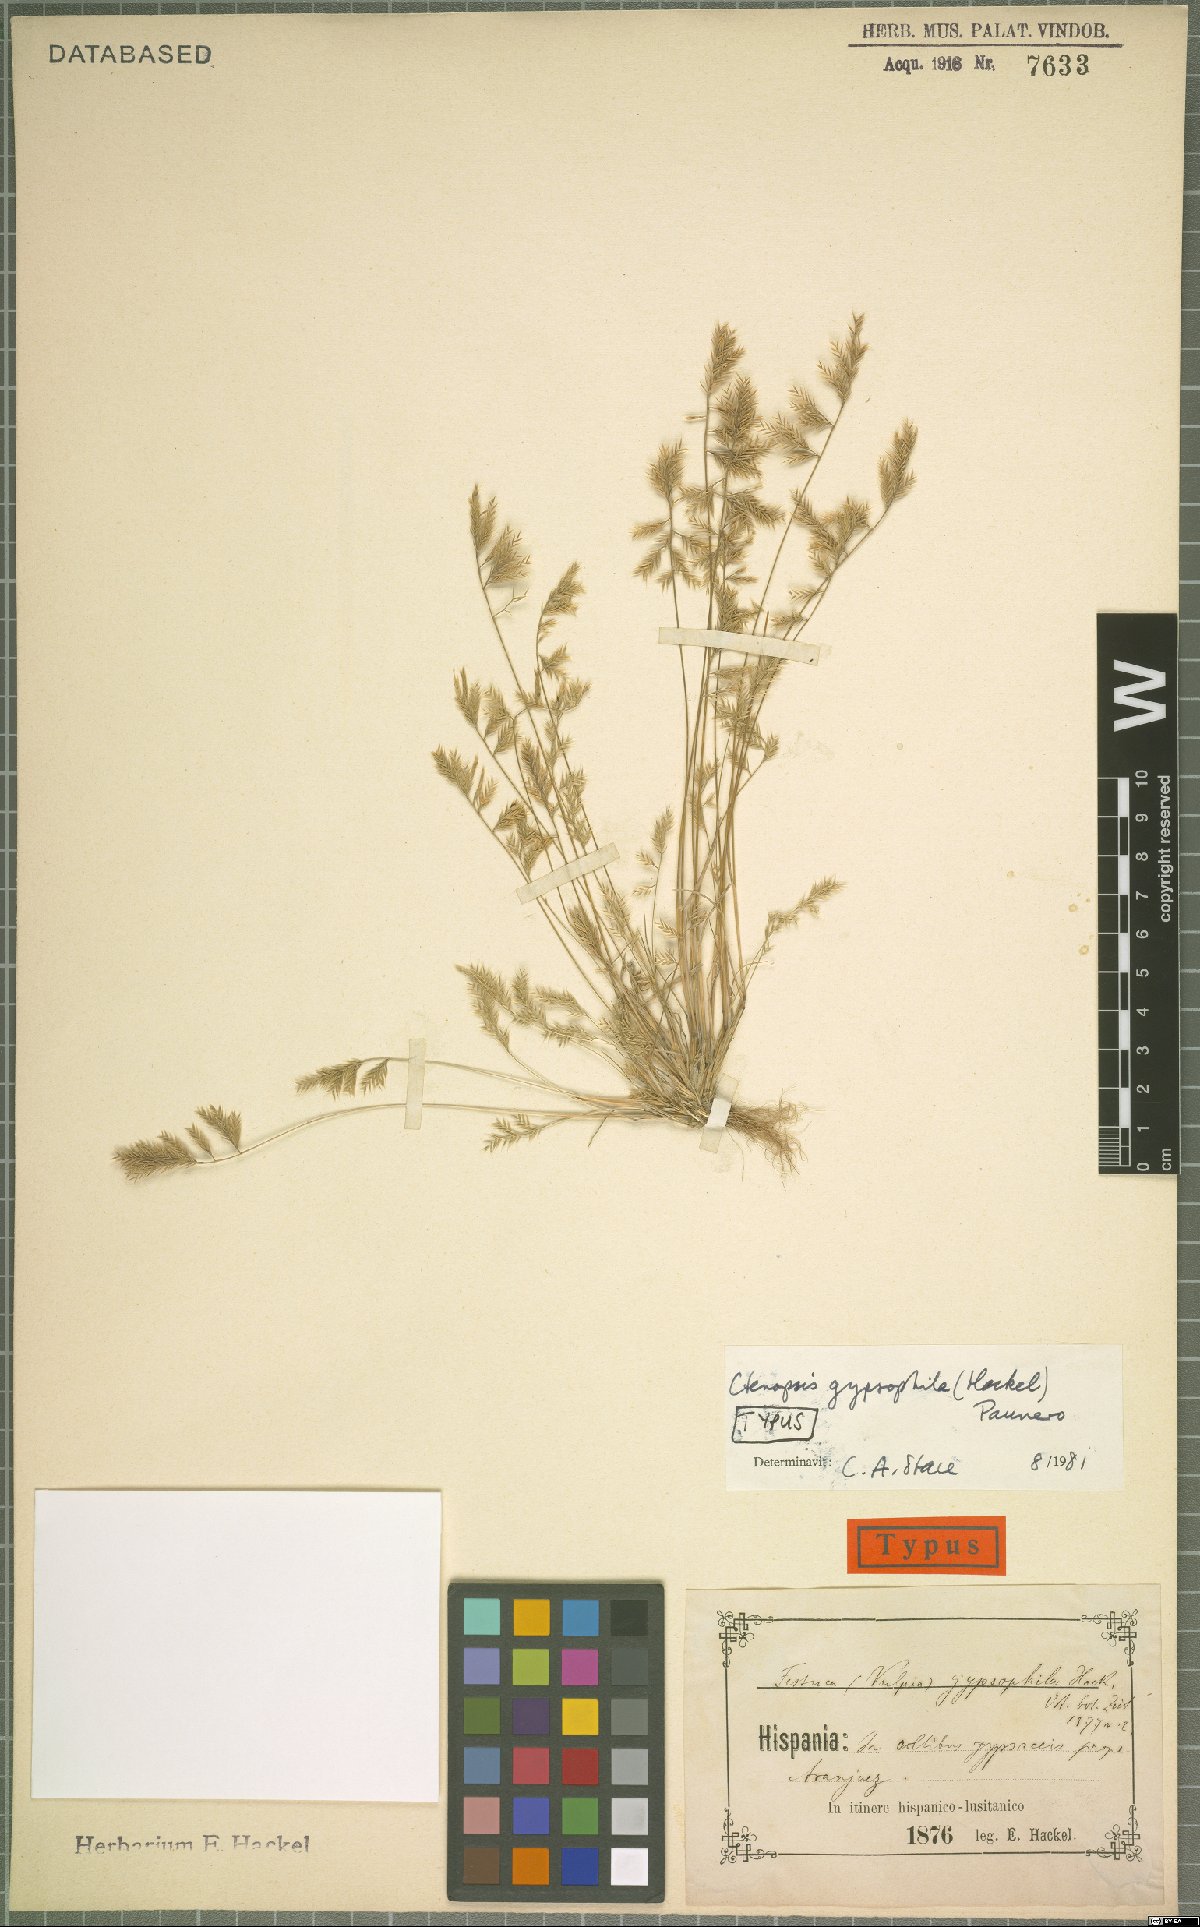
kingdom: Plantae
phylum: Tracheophyta
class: Liliopsida
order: Poales
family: Poaceae
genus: Festuca
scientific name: Festuca gypsophila
